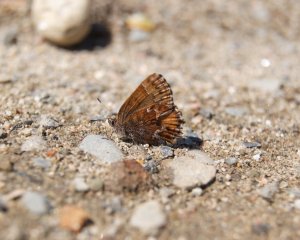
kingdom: Animalia
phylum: Arthropoda
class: Insecta
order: Lepidoptera
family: Lycaenidae
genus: Incisalia
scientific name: Incisalia niphon
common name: Eastern Pine Elfin
